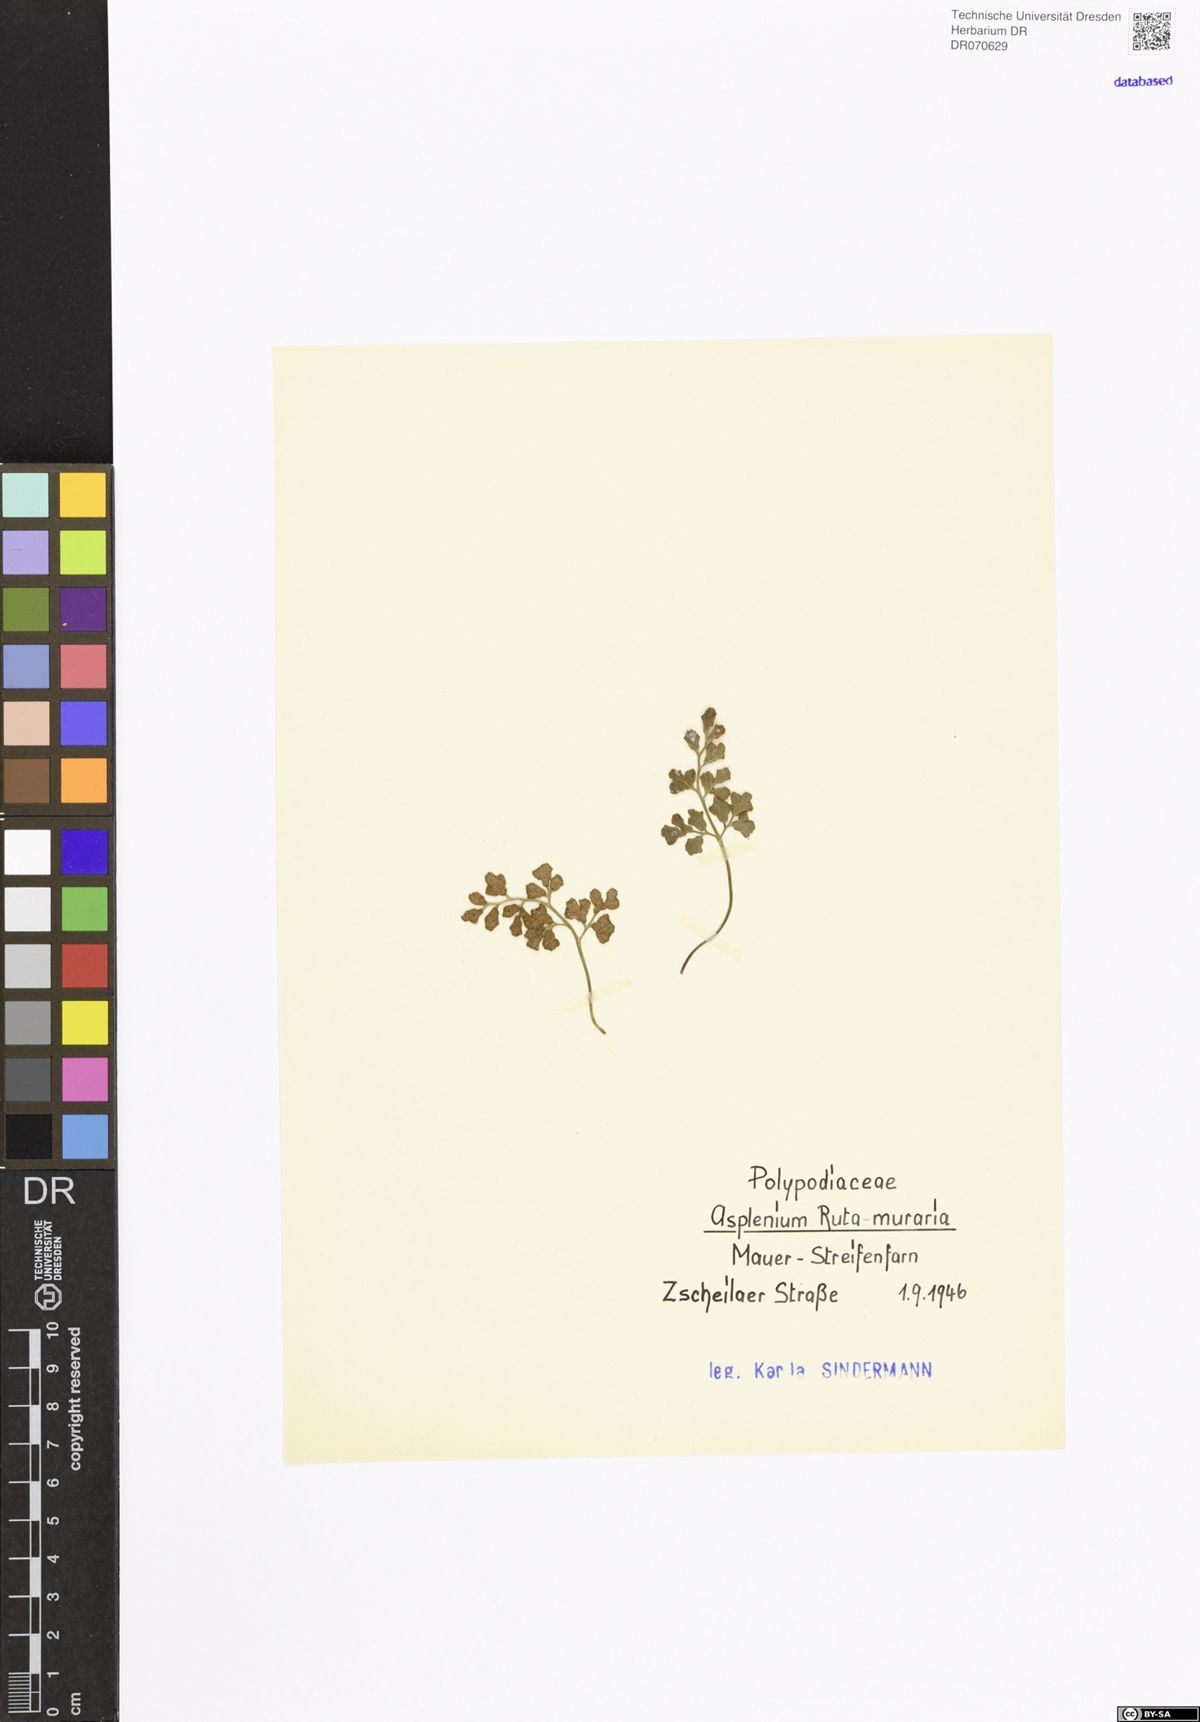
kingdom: Plantae
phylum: Tracheophyta
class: Polypodiopsida
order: Polypodiales
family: Aspleniaceae
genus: Asplenium
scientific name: Asplenium ruta-muraria
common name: Wall-rue
